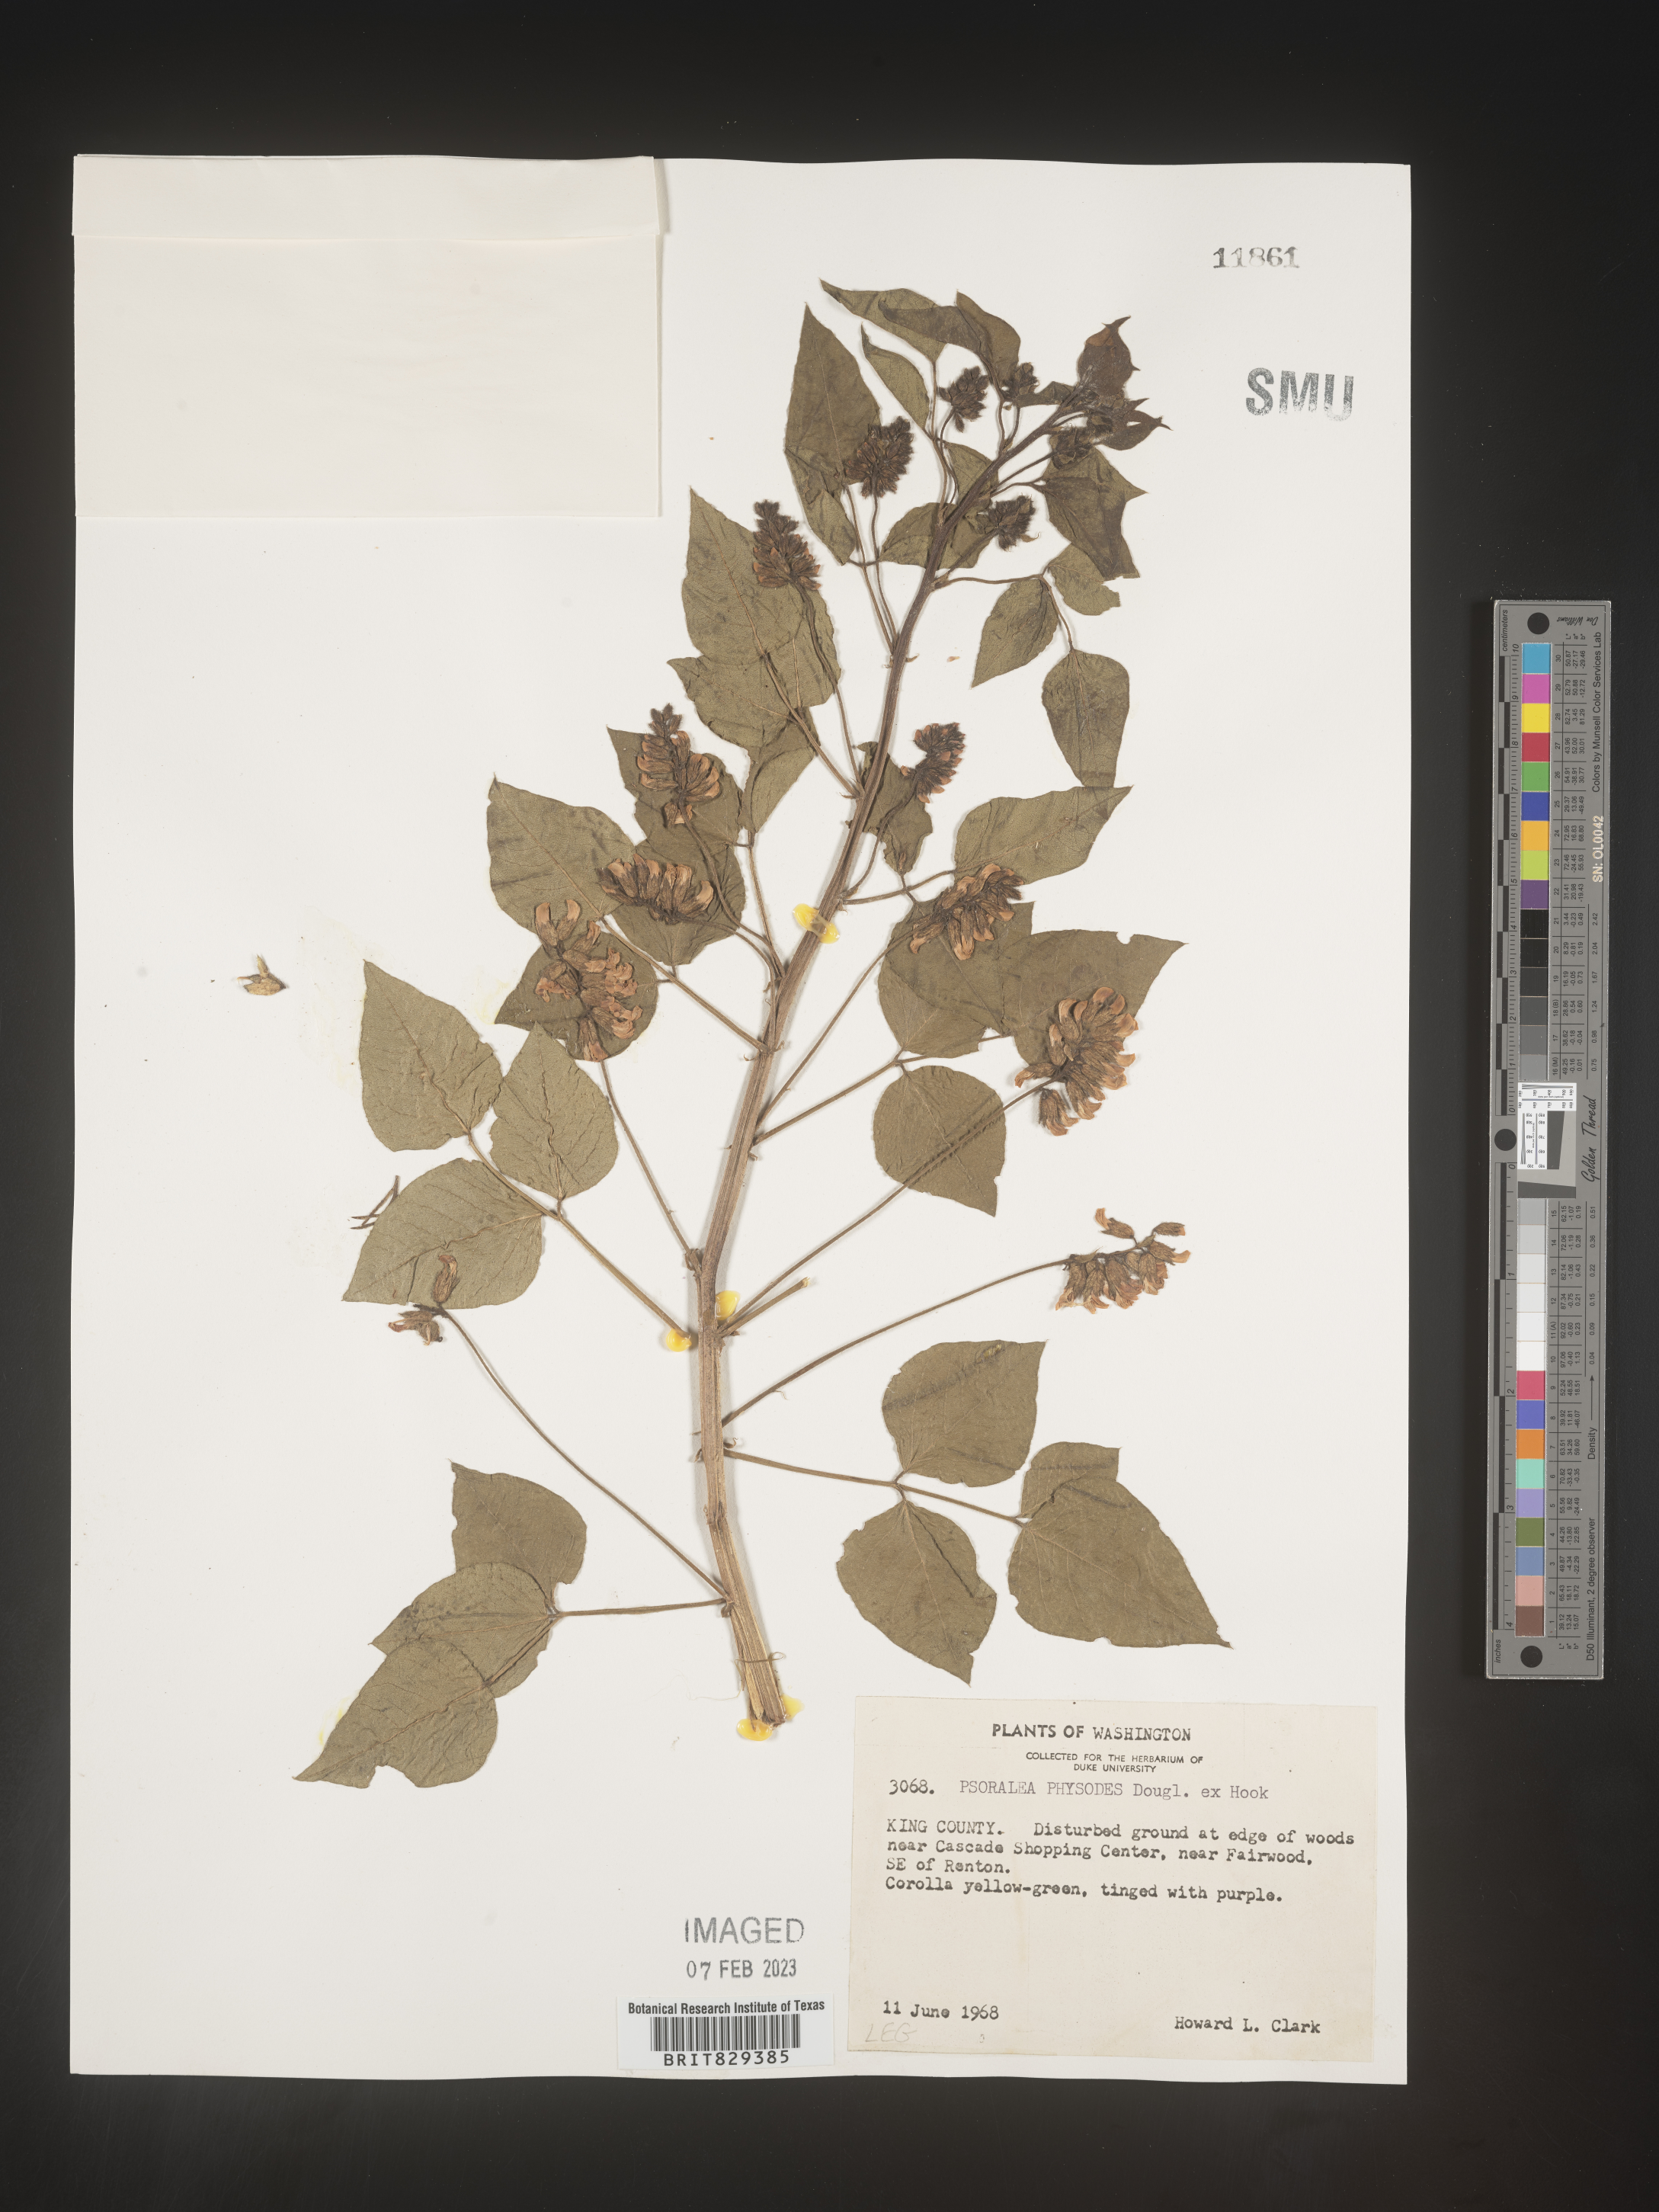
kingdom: Plantae
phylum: Tracheophyta
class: Magnoliopsida
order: Fabales
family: Fabaceae
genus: Psoralea
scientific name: Psoralea
